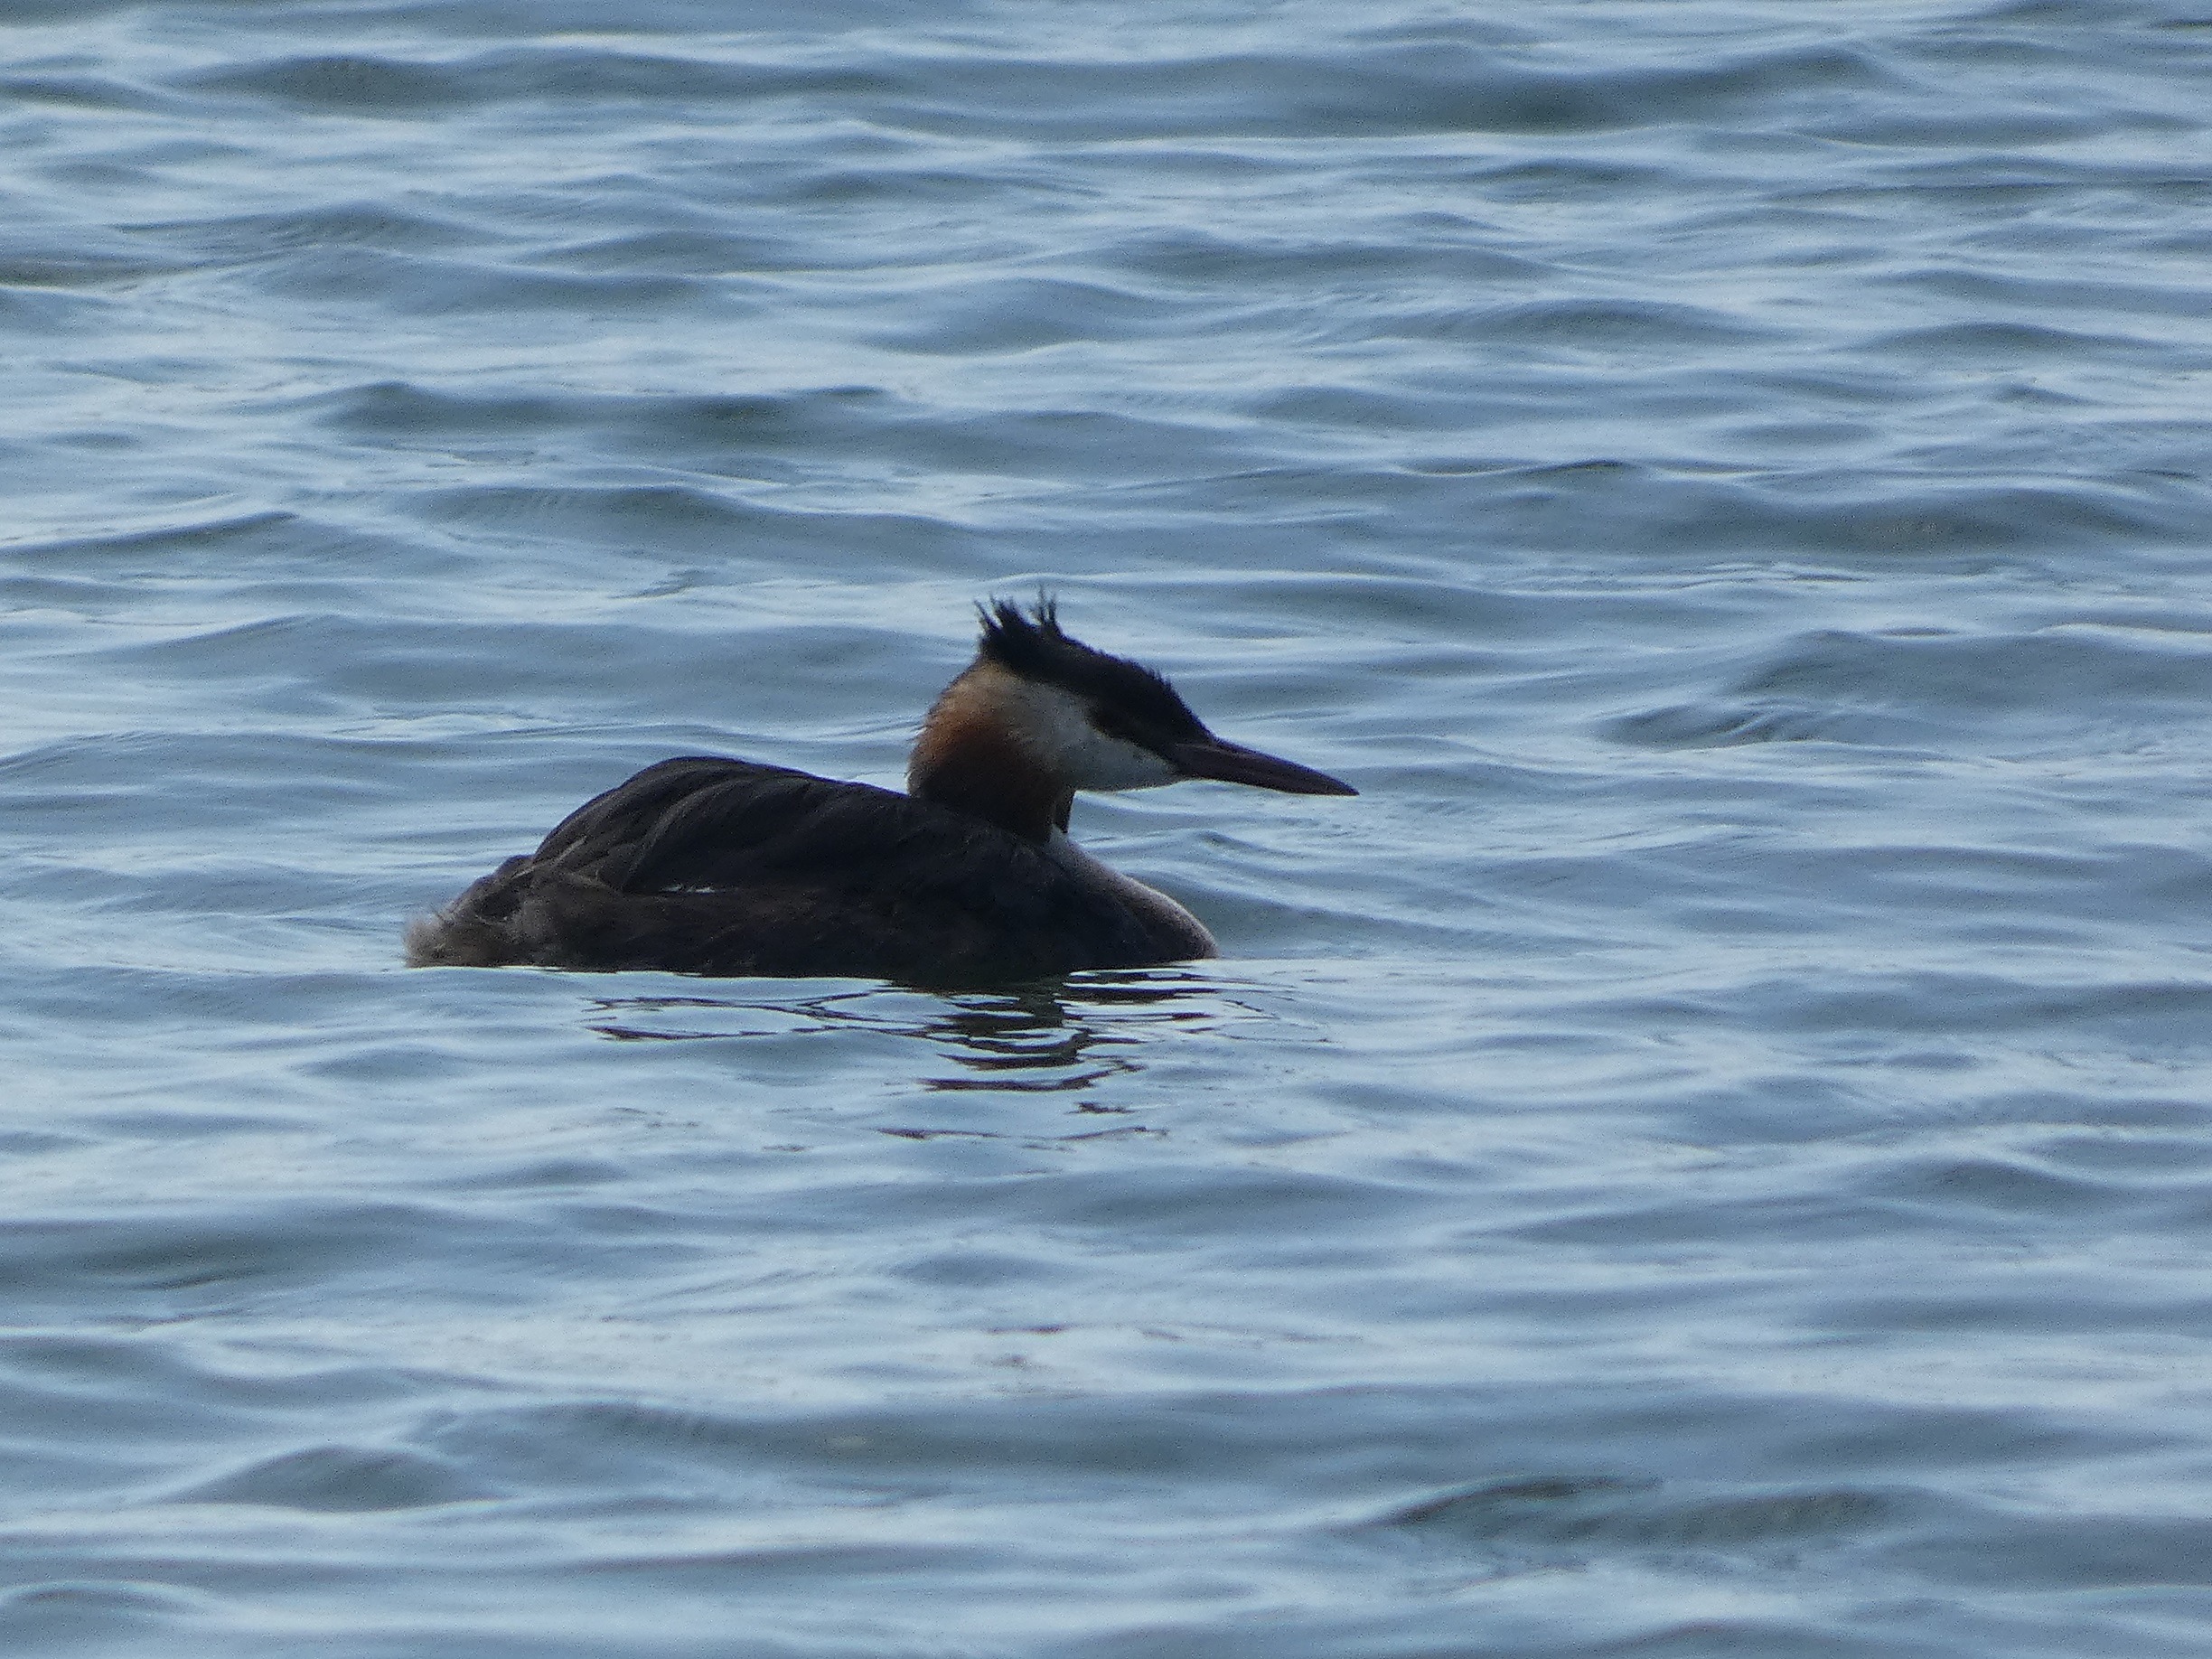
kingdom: Animalia
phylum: Chordata
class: Aves
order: Podicipediformes
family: Podicipedidae
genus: Podiceps
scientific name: Podiceps cristatus
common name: Toppet lappedykker
